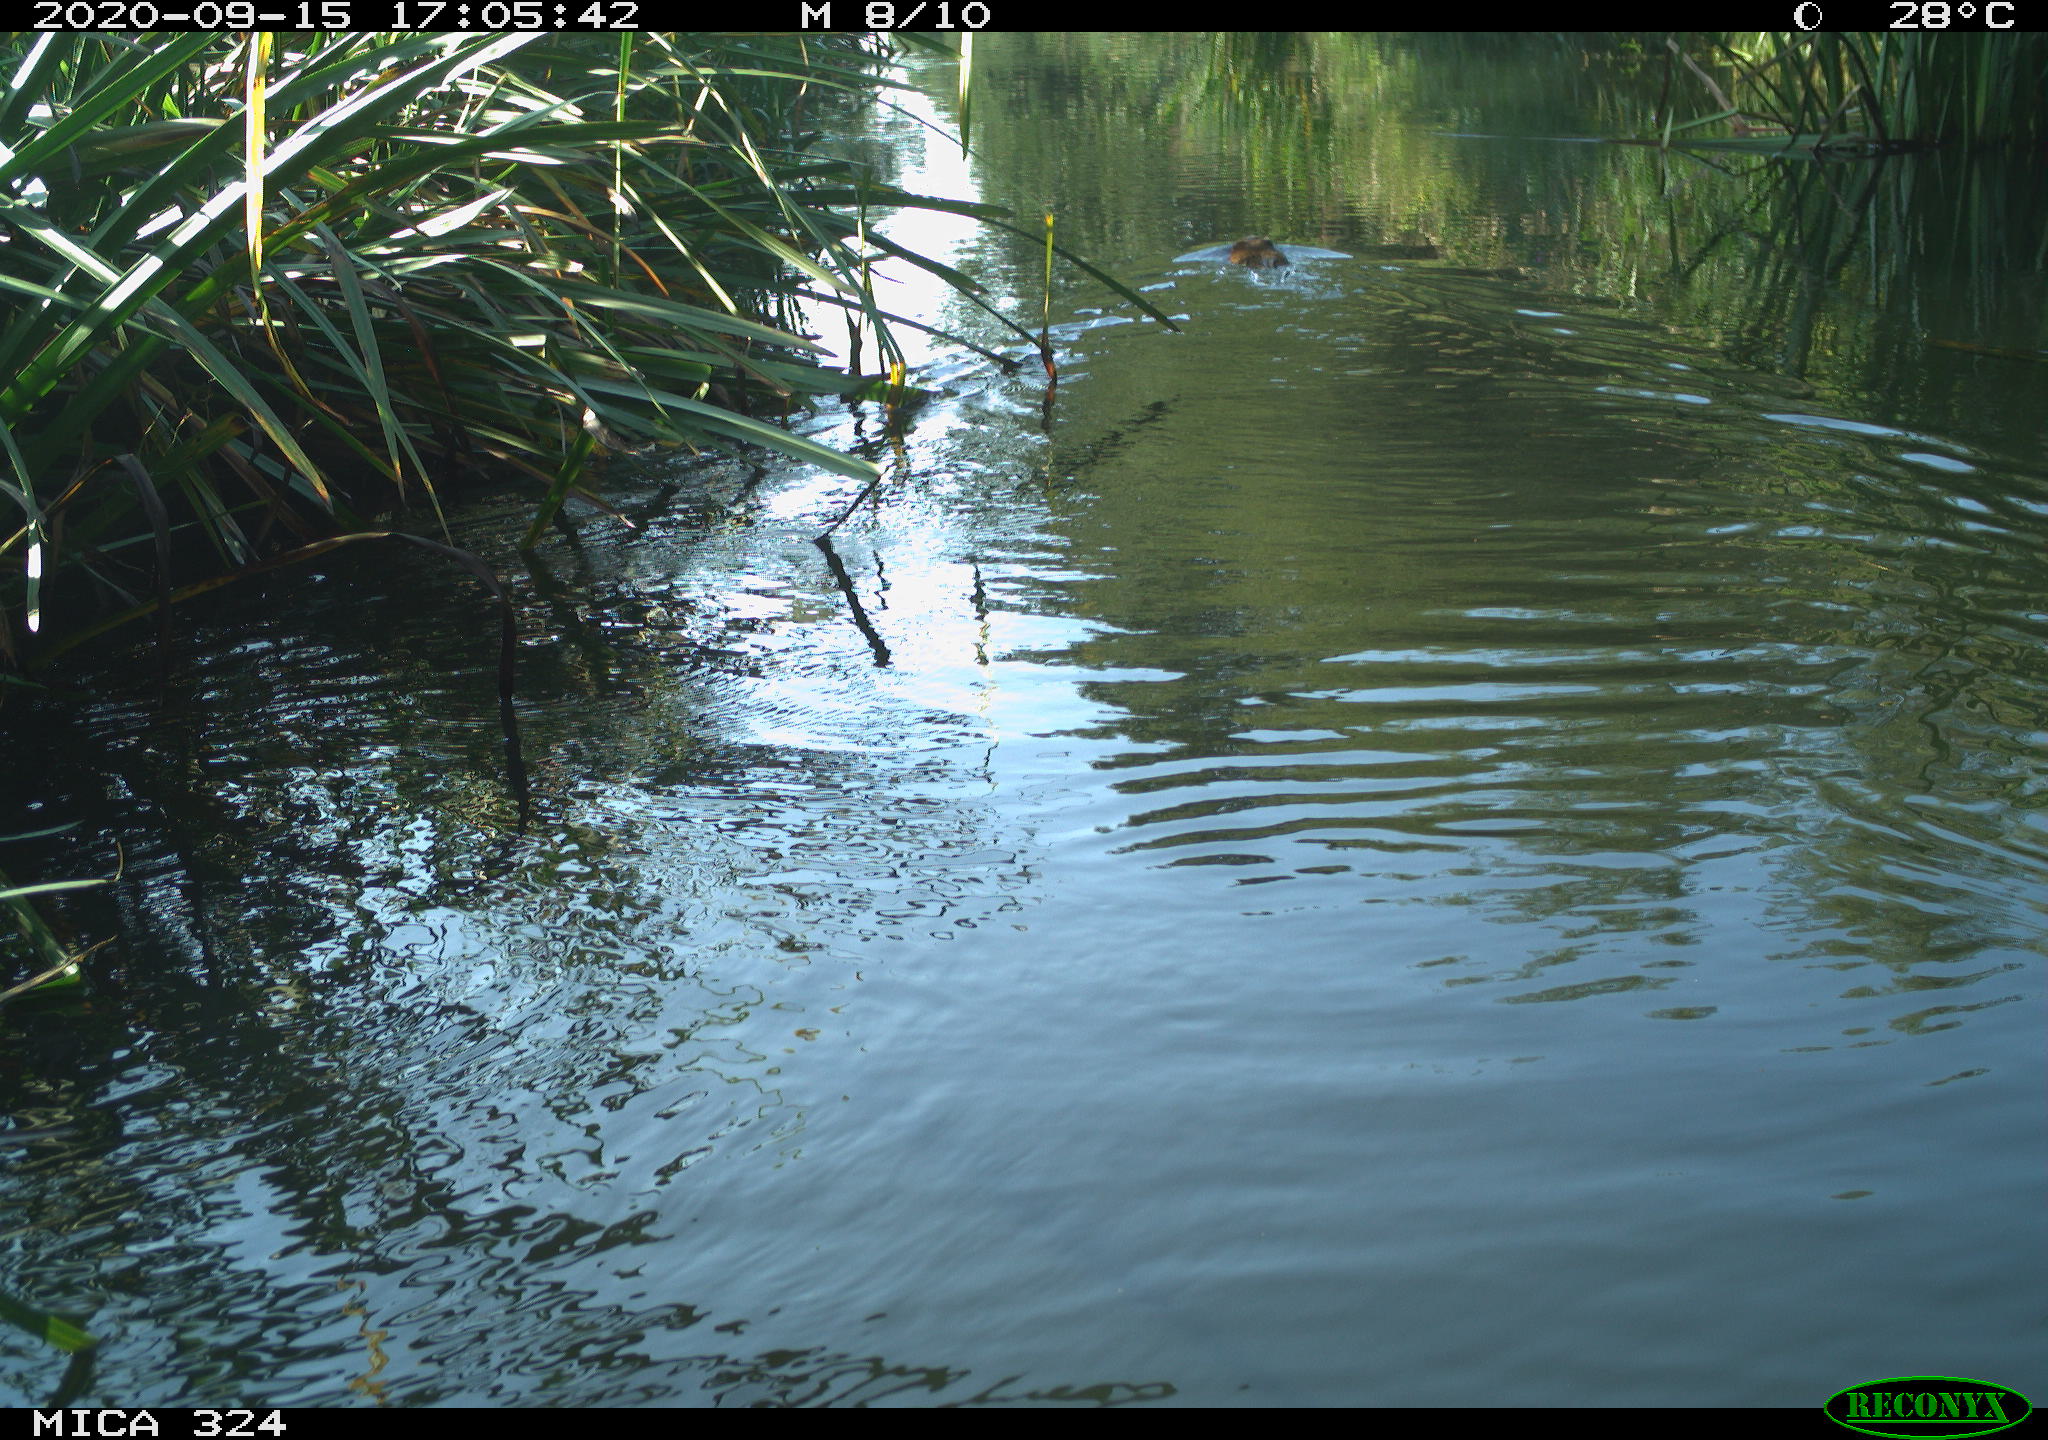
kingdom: Animalia
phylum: Chordata
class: Mammalia
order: Rodentia
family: Cricetidae
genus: Ondatra
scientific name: Ondatra zibethicus
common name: Muskrat
